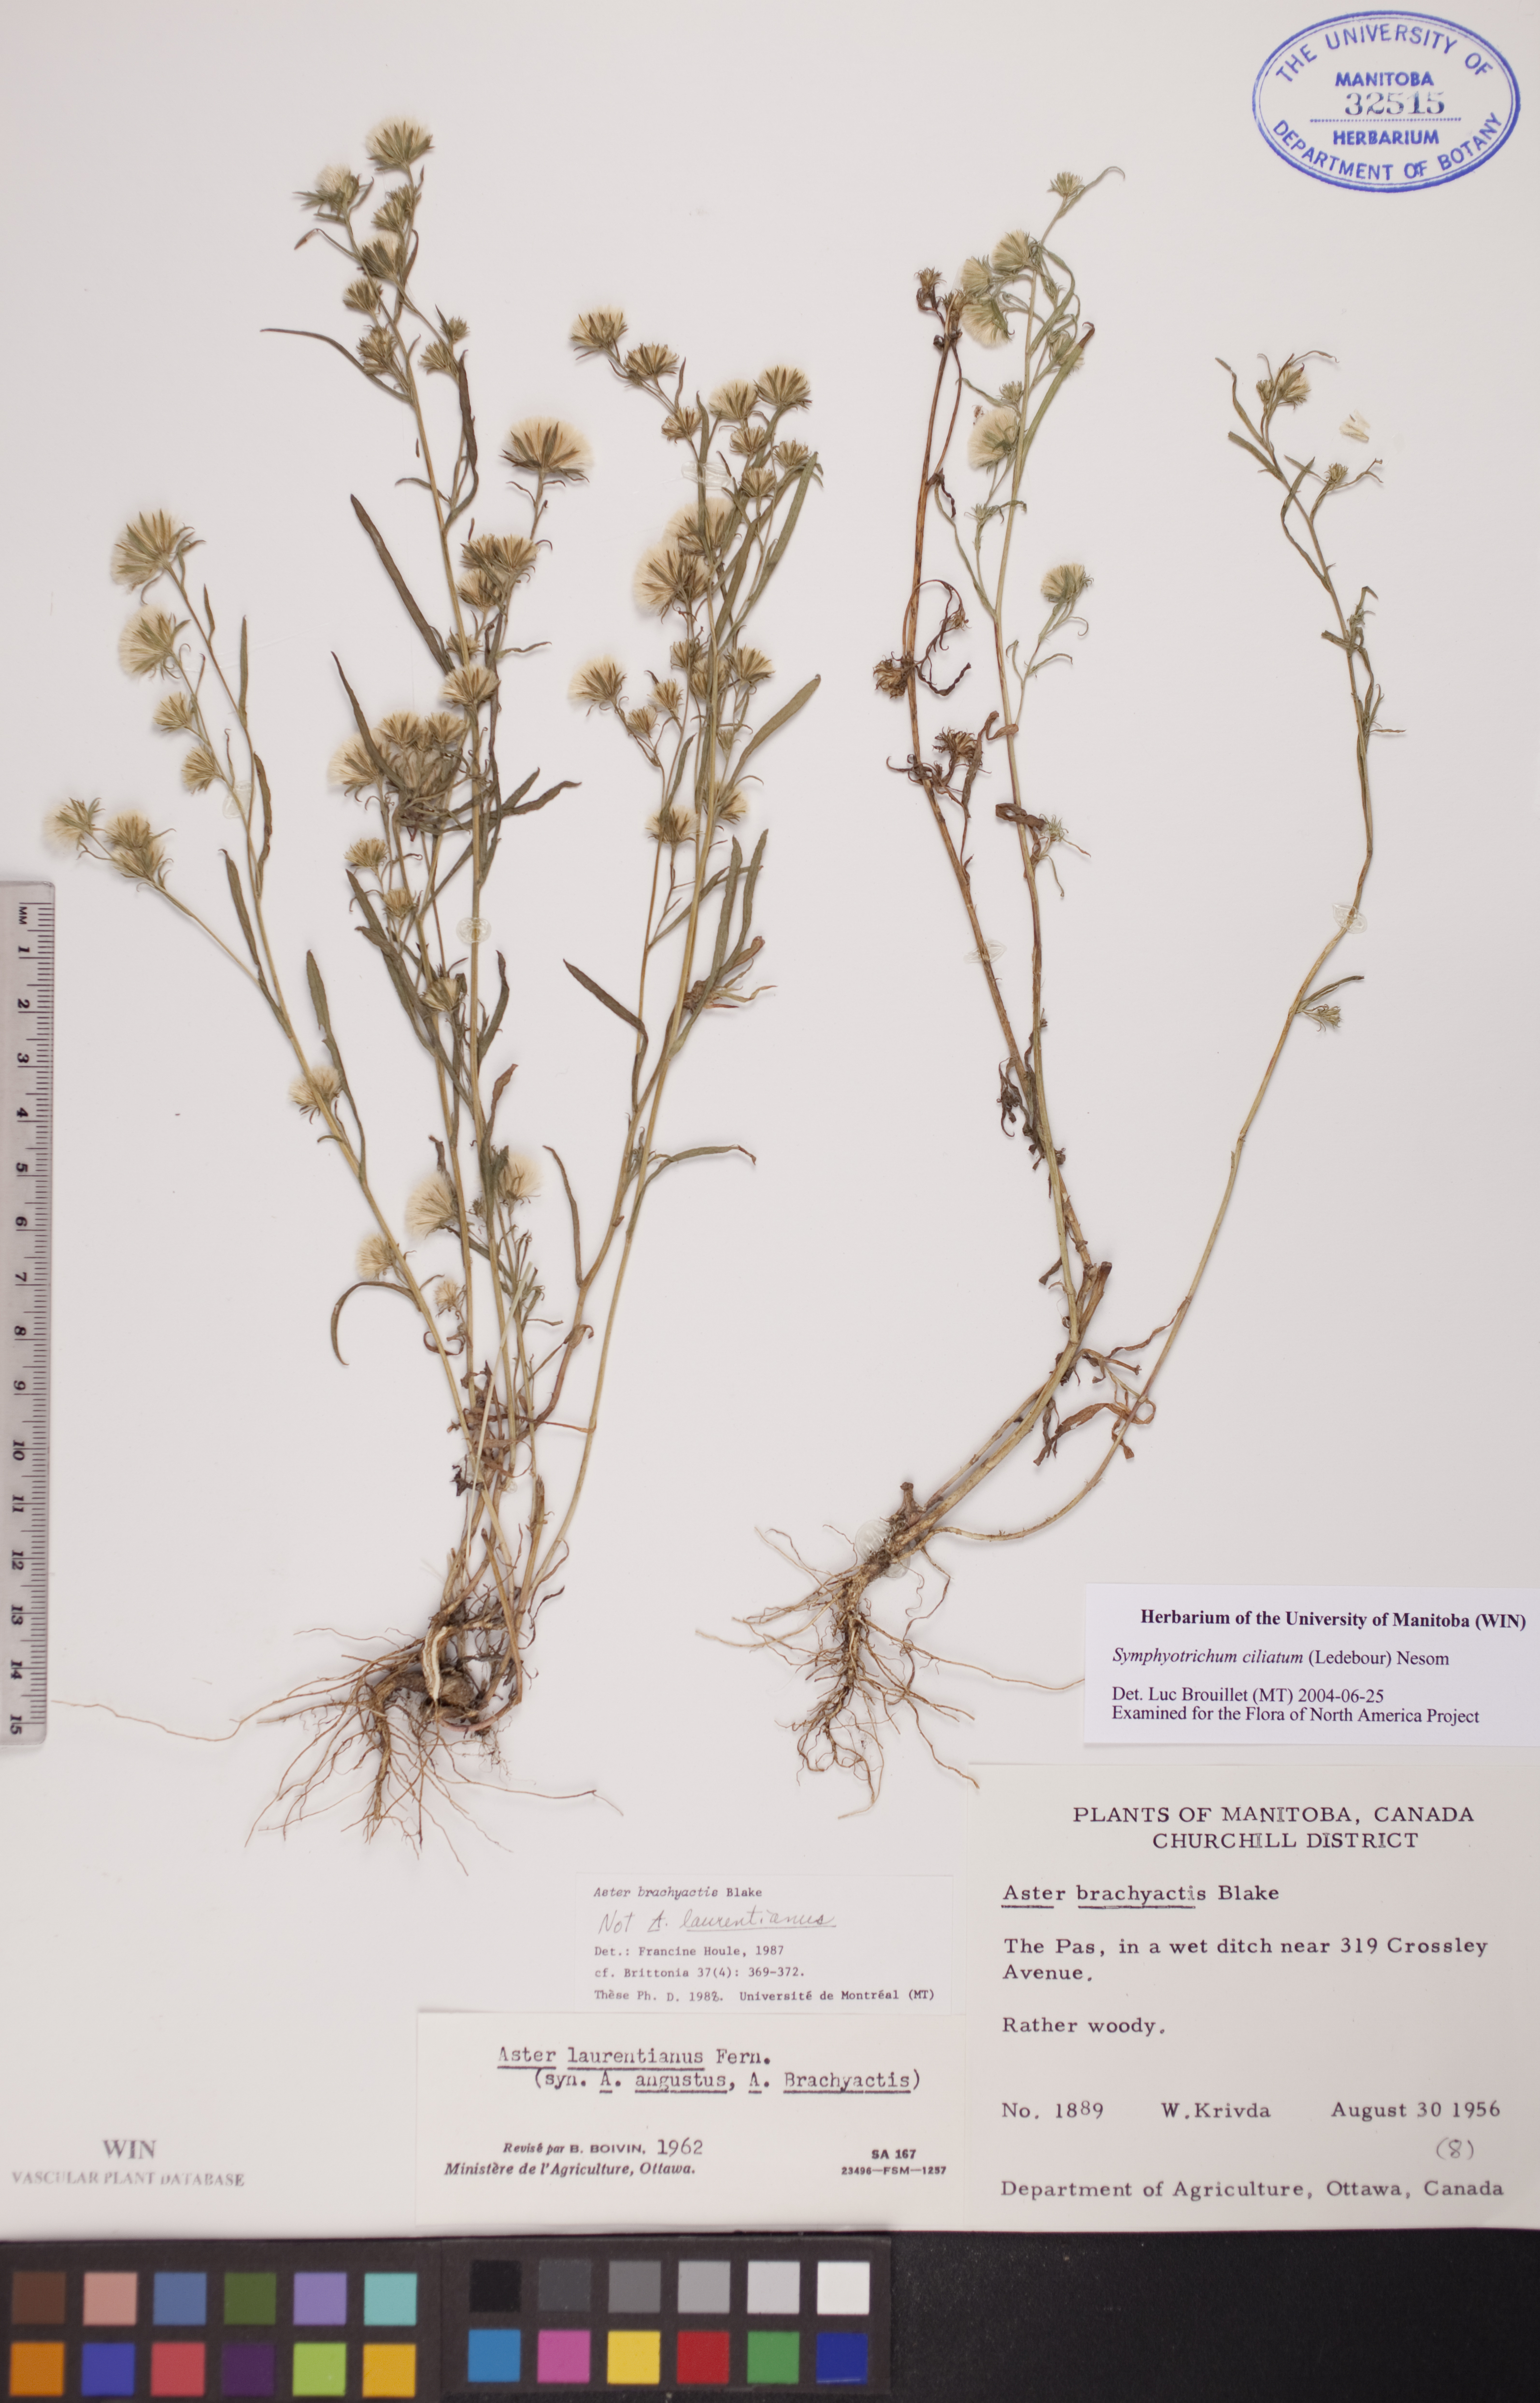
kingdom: Plantae
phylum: Tracheophyta
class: Magnoliopsida
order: Asterales
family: Asteraceae
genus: Symphyotrichum
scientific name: Symphyotrichum ciliatum
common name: Rayless annual aster
